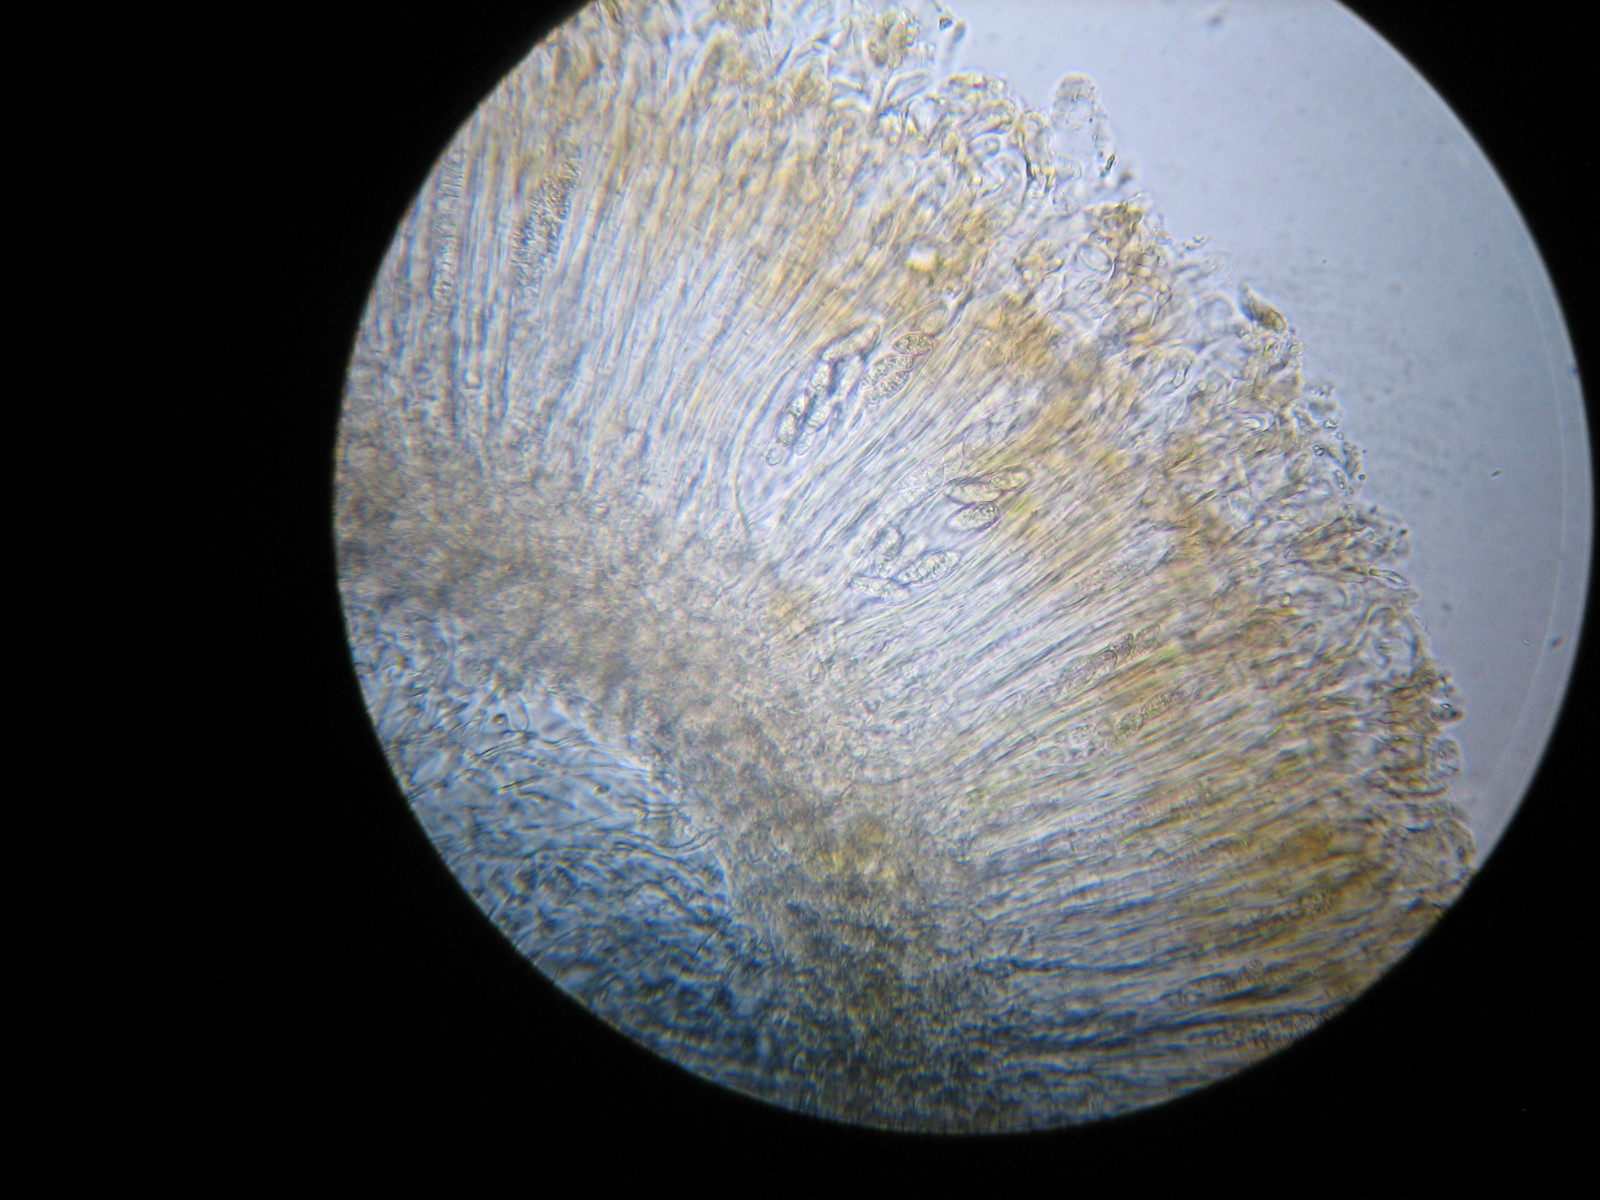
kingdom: Fungi
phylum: Ascomycota
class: Lecanoromycetes
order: Peltigerales
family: Collemataceae
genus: Enchylium
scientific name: Enchylium tenax
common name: tyk bævrelav
